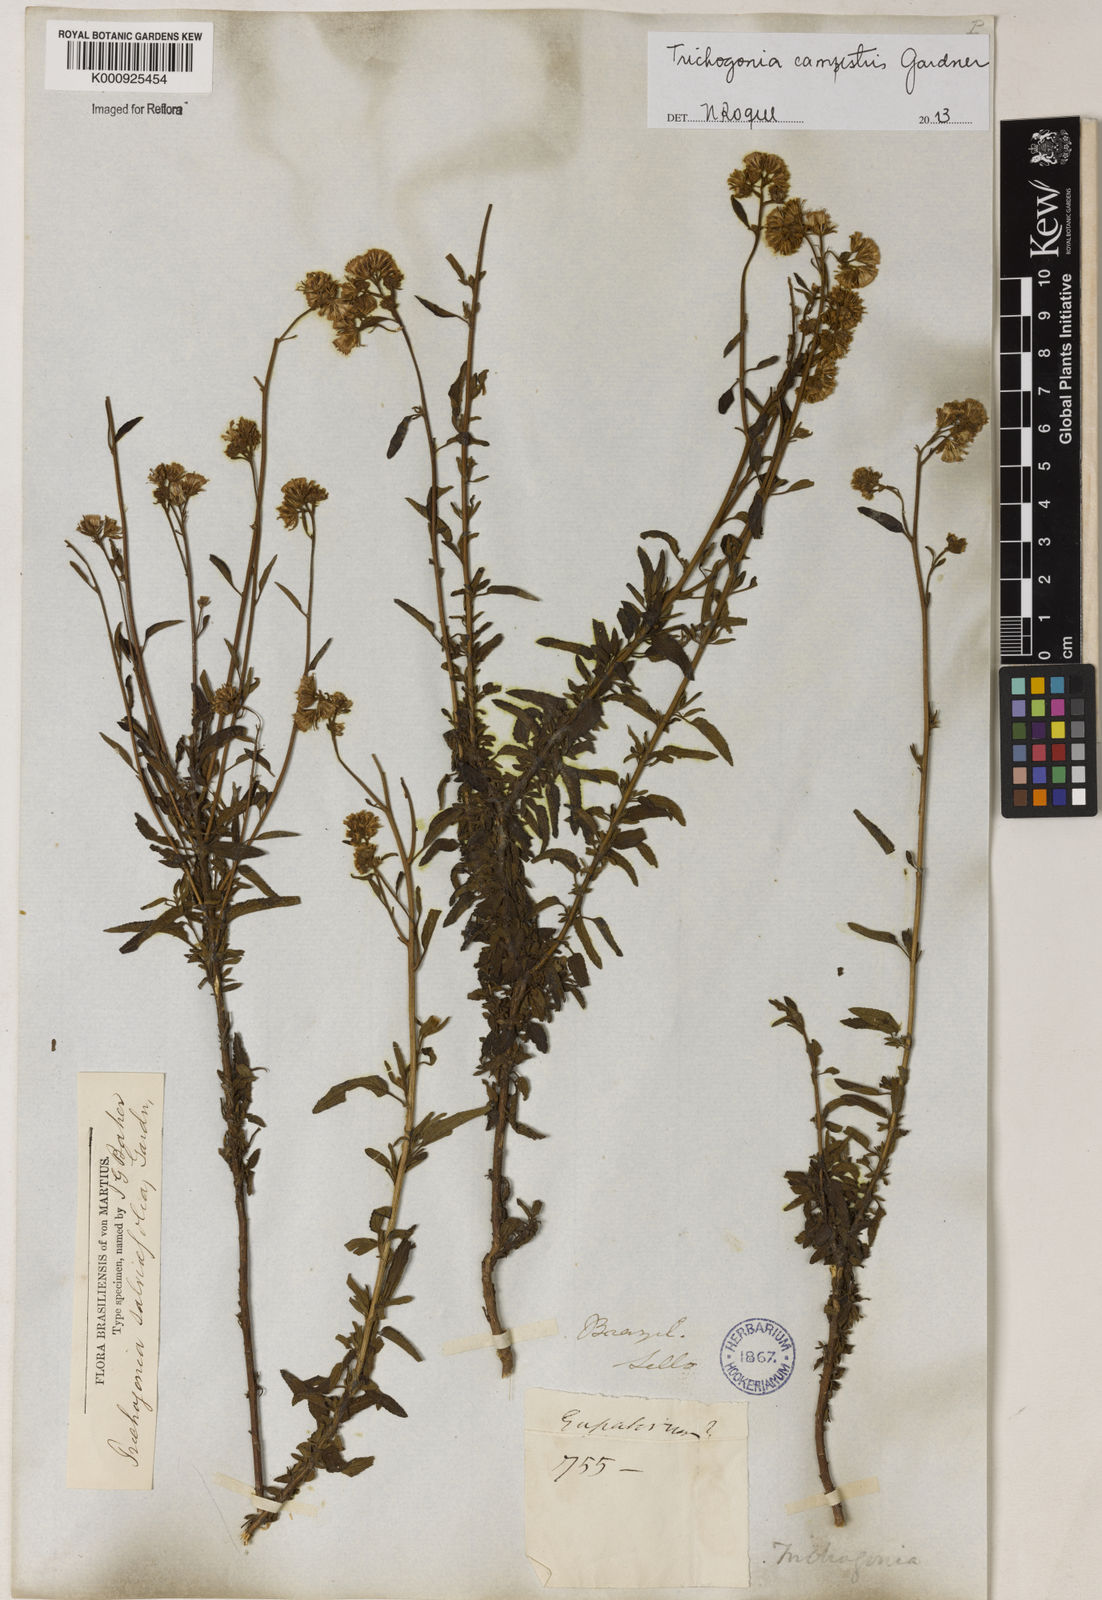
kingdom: Plantae
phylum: Tracheophyta
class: Magnoliopsida
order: Asterales
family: Asteraceae
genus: Trichogonia
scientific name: Trichogonia campestris
